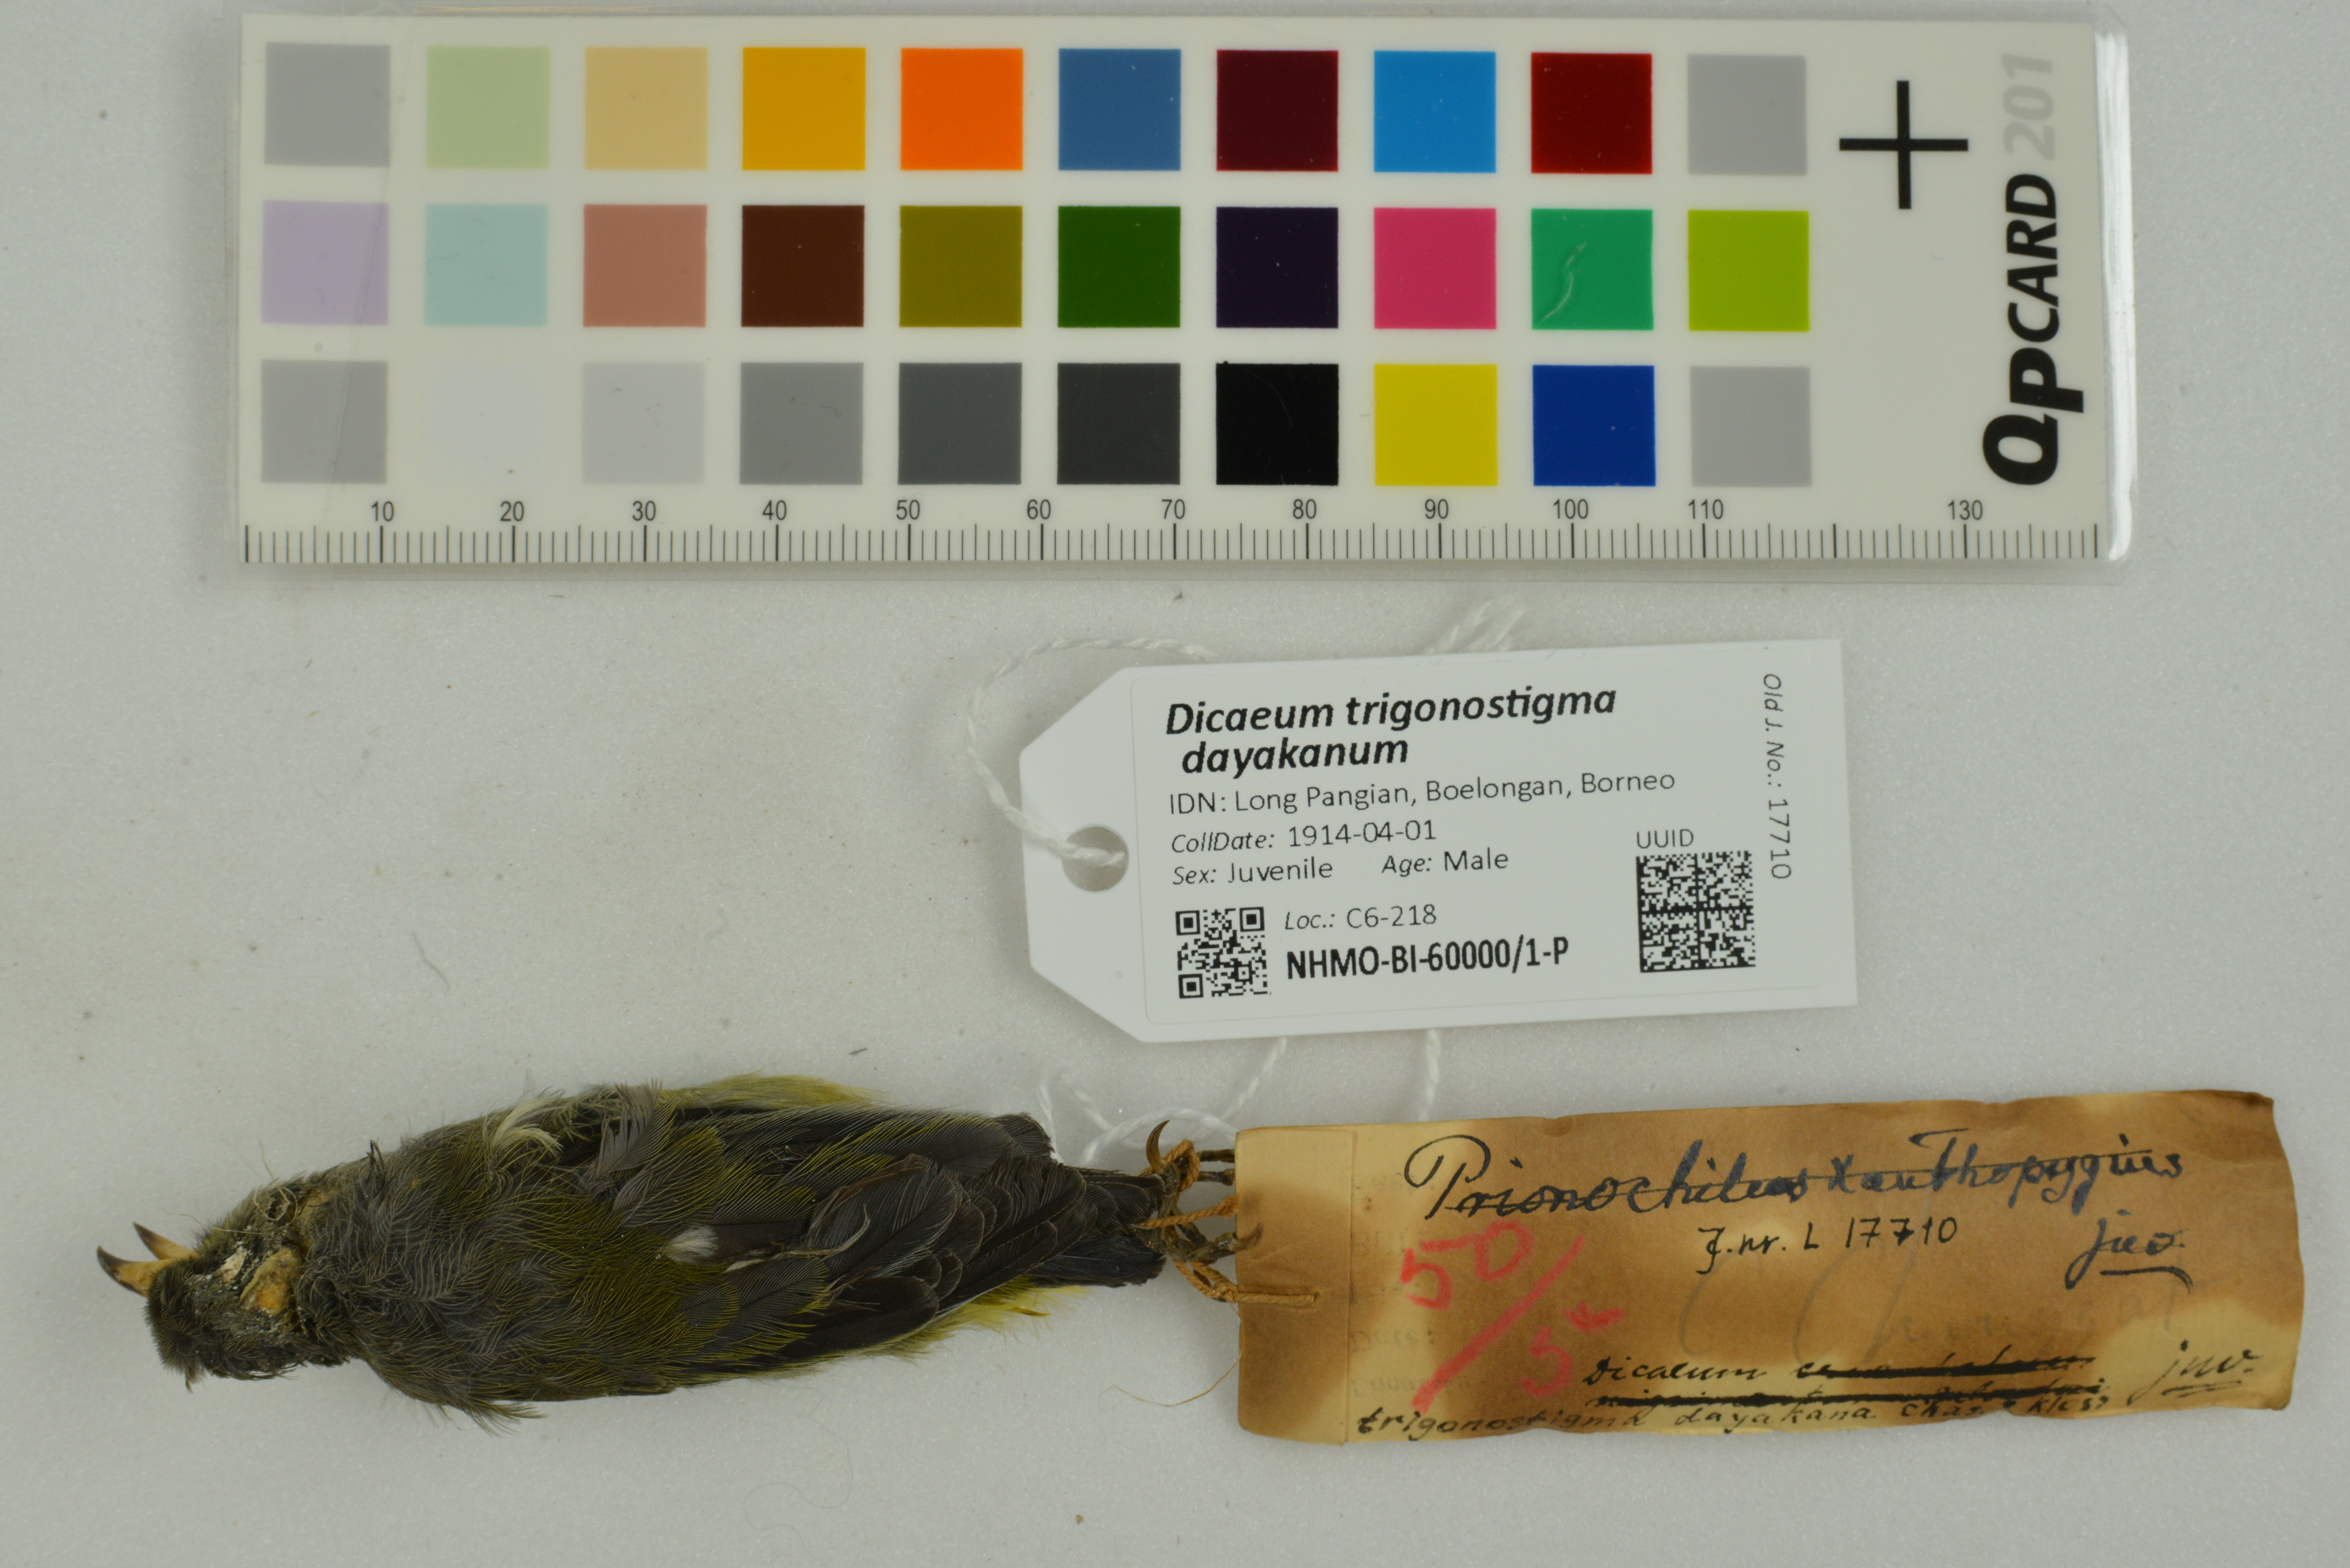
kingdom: Animalia
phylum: Chordata
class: Aves
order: Passeriformes
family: Dicaeidae
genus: Dicaeum
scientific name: Dicaeum trigonostigma
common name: Orange-bellied flowerpecker
